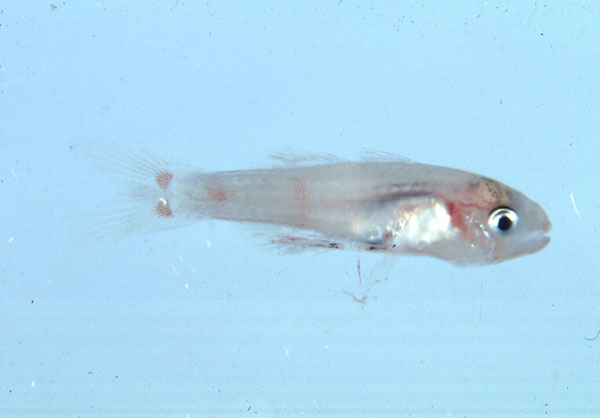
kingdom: Animalia
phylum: Chordata
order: Perciformes
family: Apogonidae
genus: Gymnapogon
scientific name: Gymnapogon urospilotus
